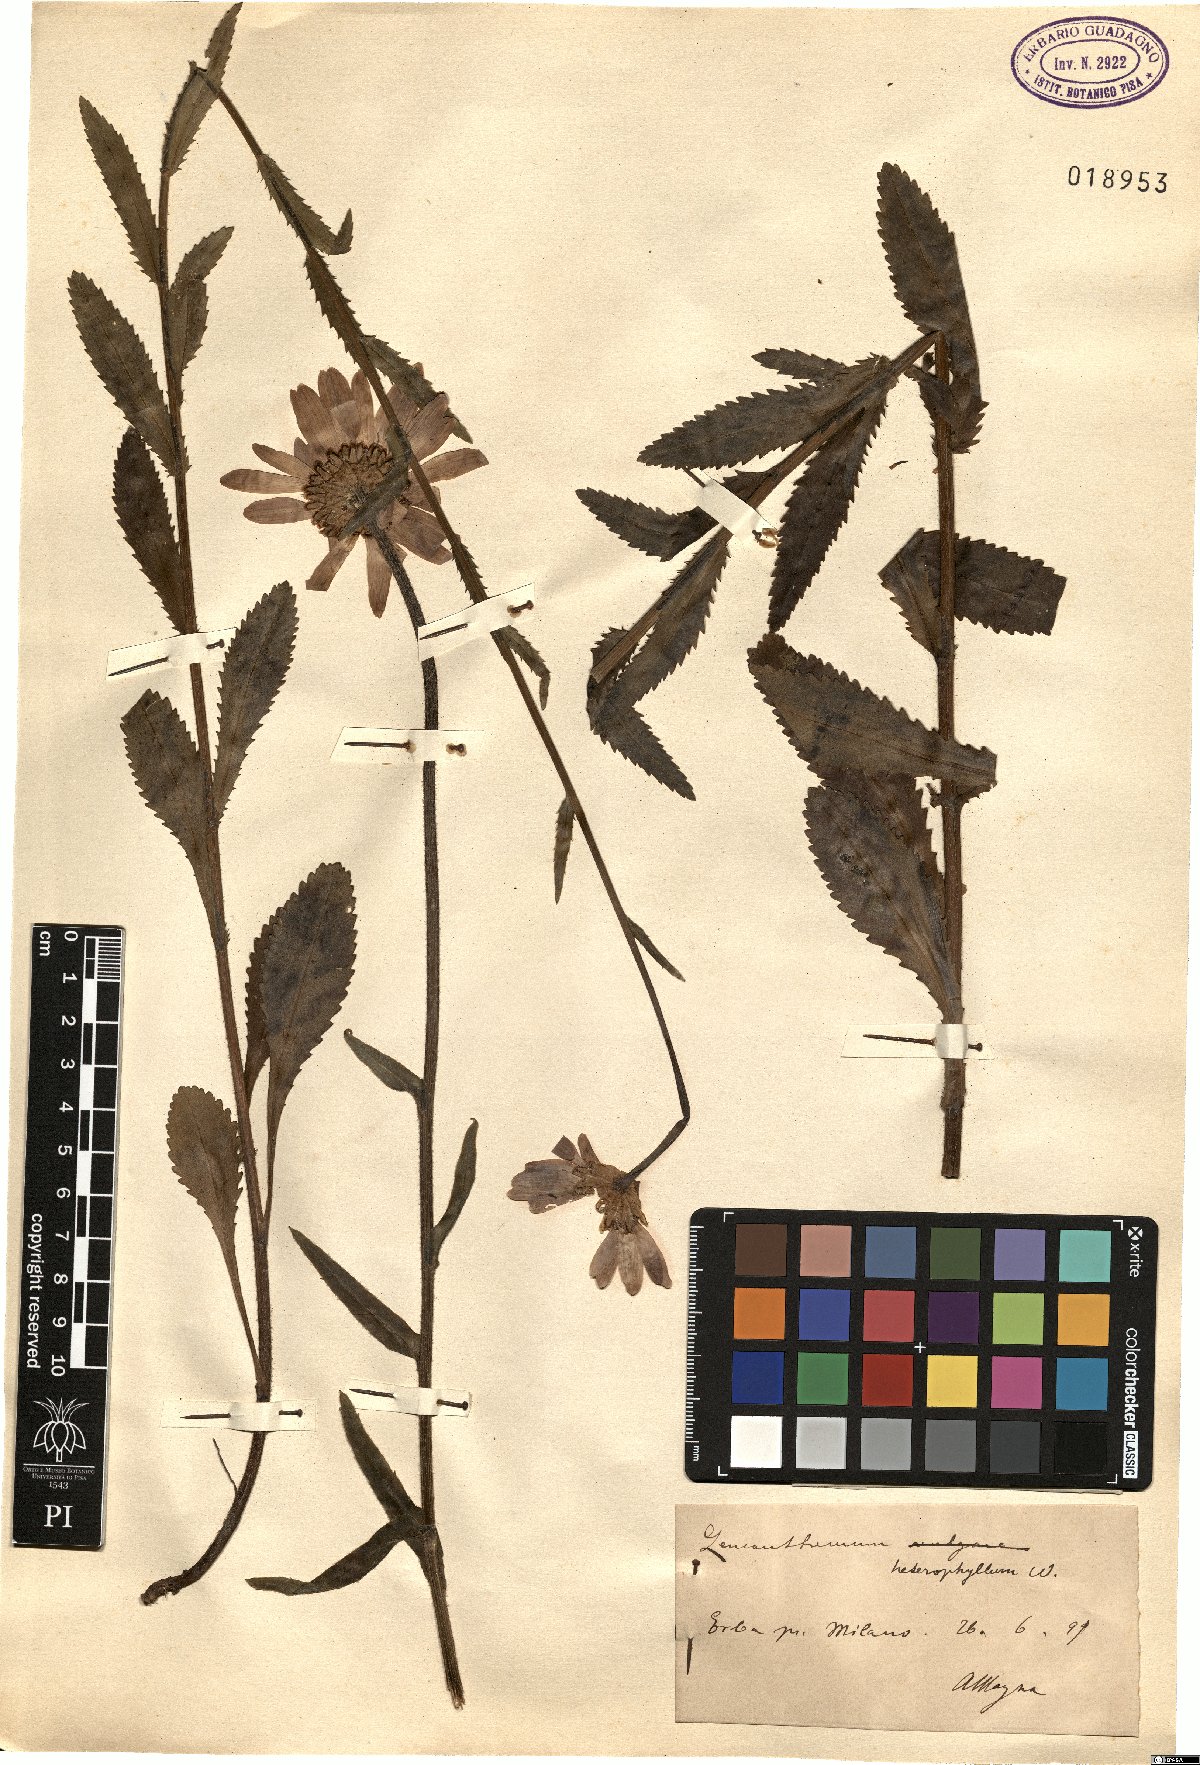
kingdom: Plantae
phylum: Tracheophyta
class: Magnoliopsida
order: Asterales
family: Asteraceae
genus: Leucanthemum
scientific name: Leucanthemum heterophyllum
